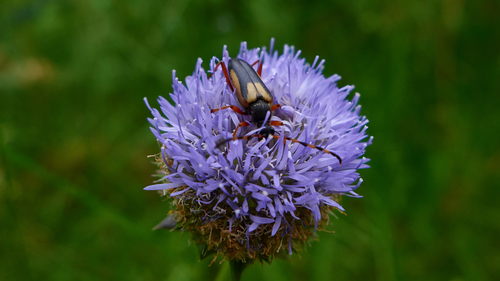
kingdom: Animalia
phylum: Arthropoda
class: Insecta
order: Coleoptera
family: Cerambycidae
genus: Stictoleptura
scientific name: Stictoleptura stragulata
